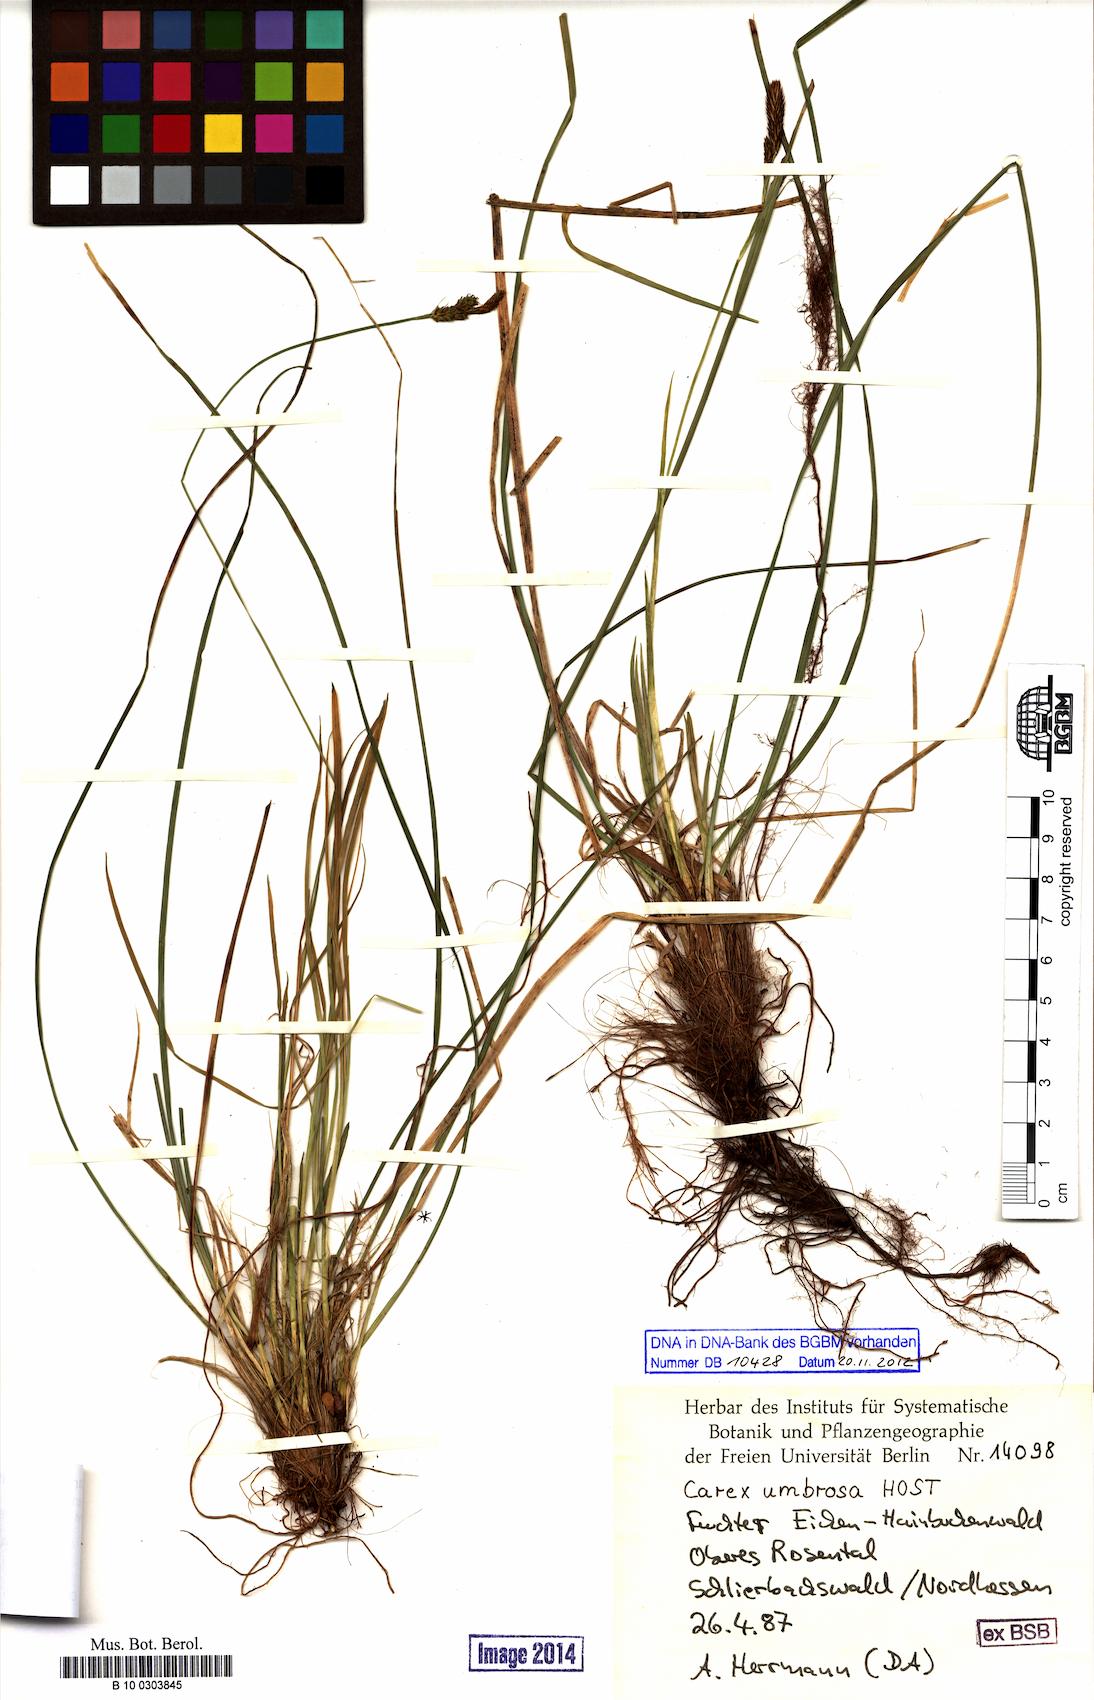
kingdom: Plantae
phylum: Tracheophyta
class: Liliopsida
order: Poales
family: Cyperaceae
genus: Carex
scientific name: Carex umbrosa
